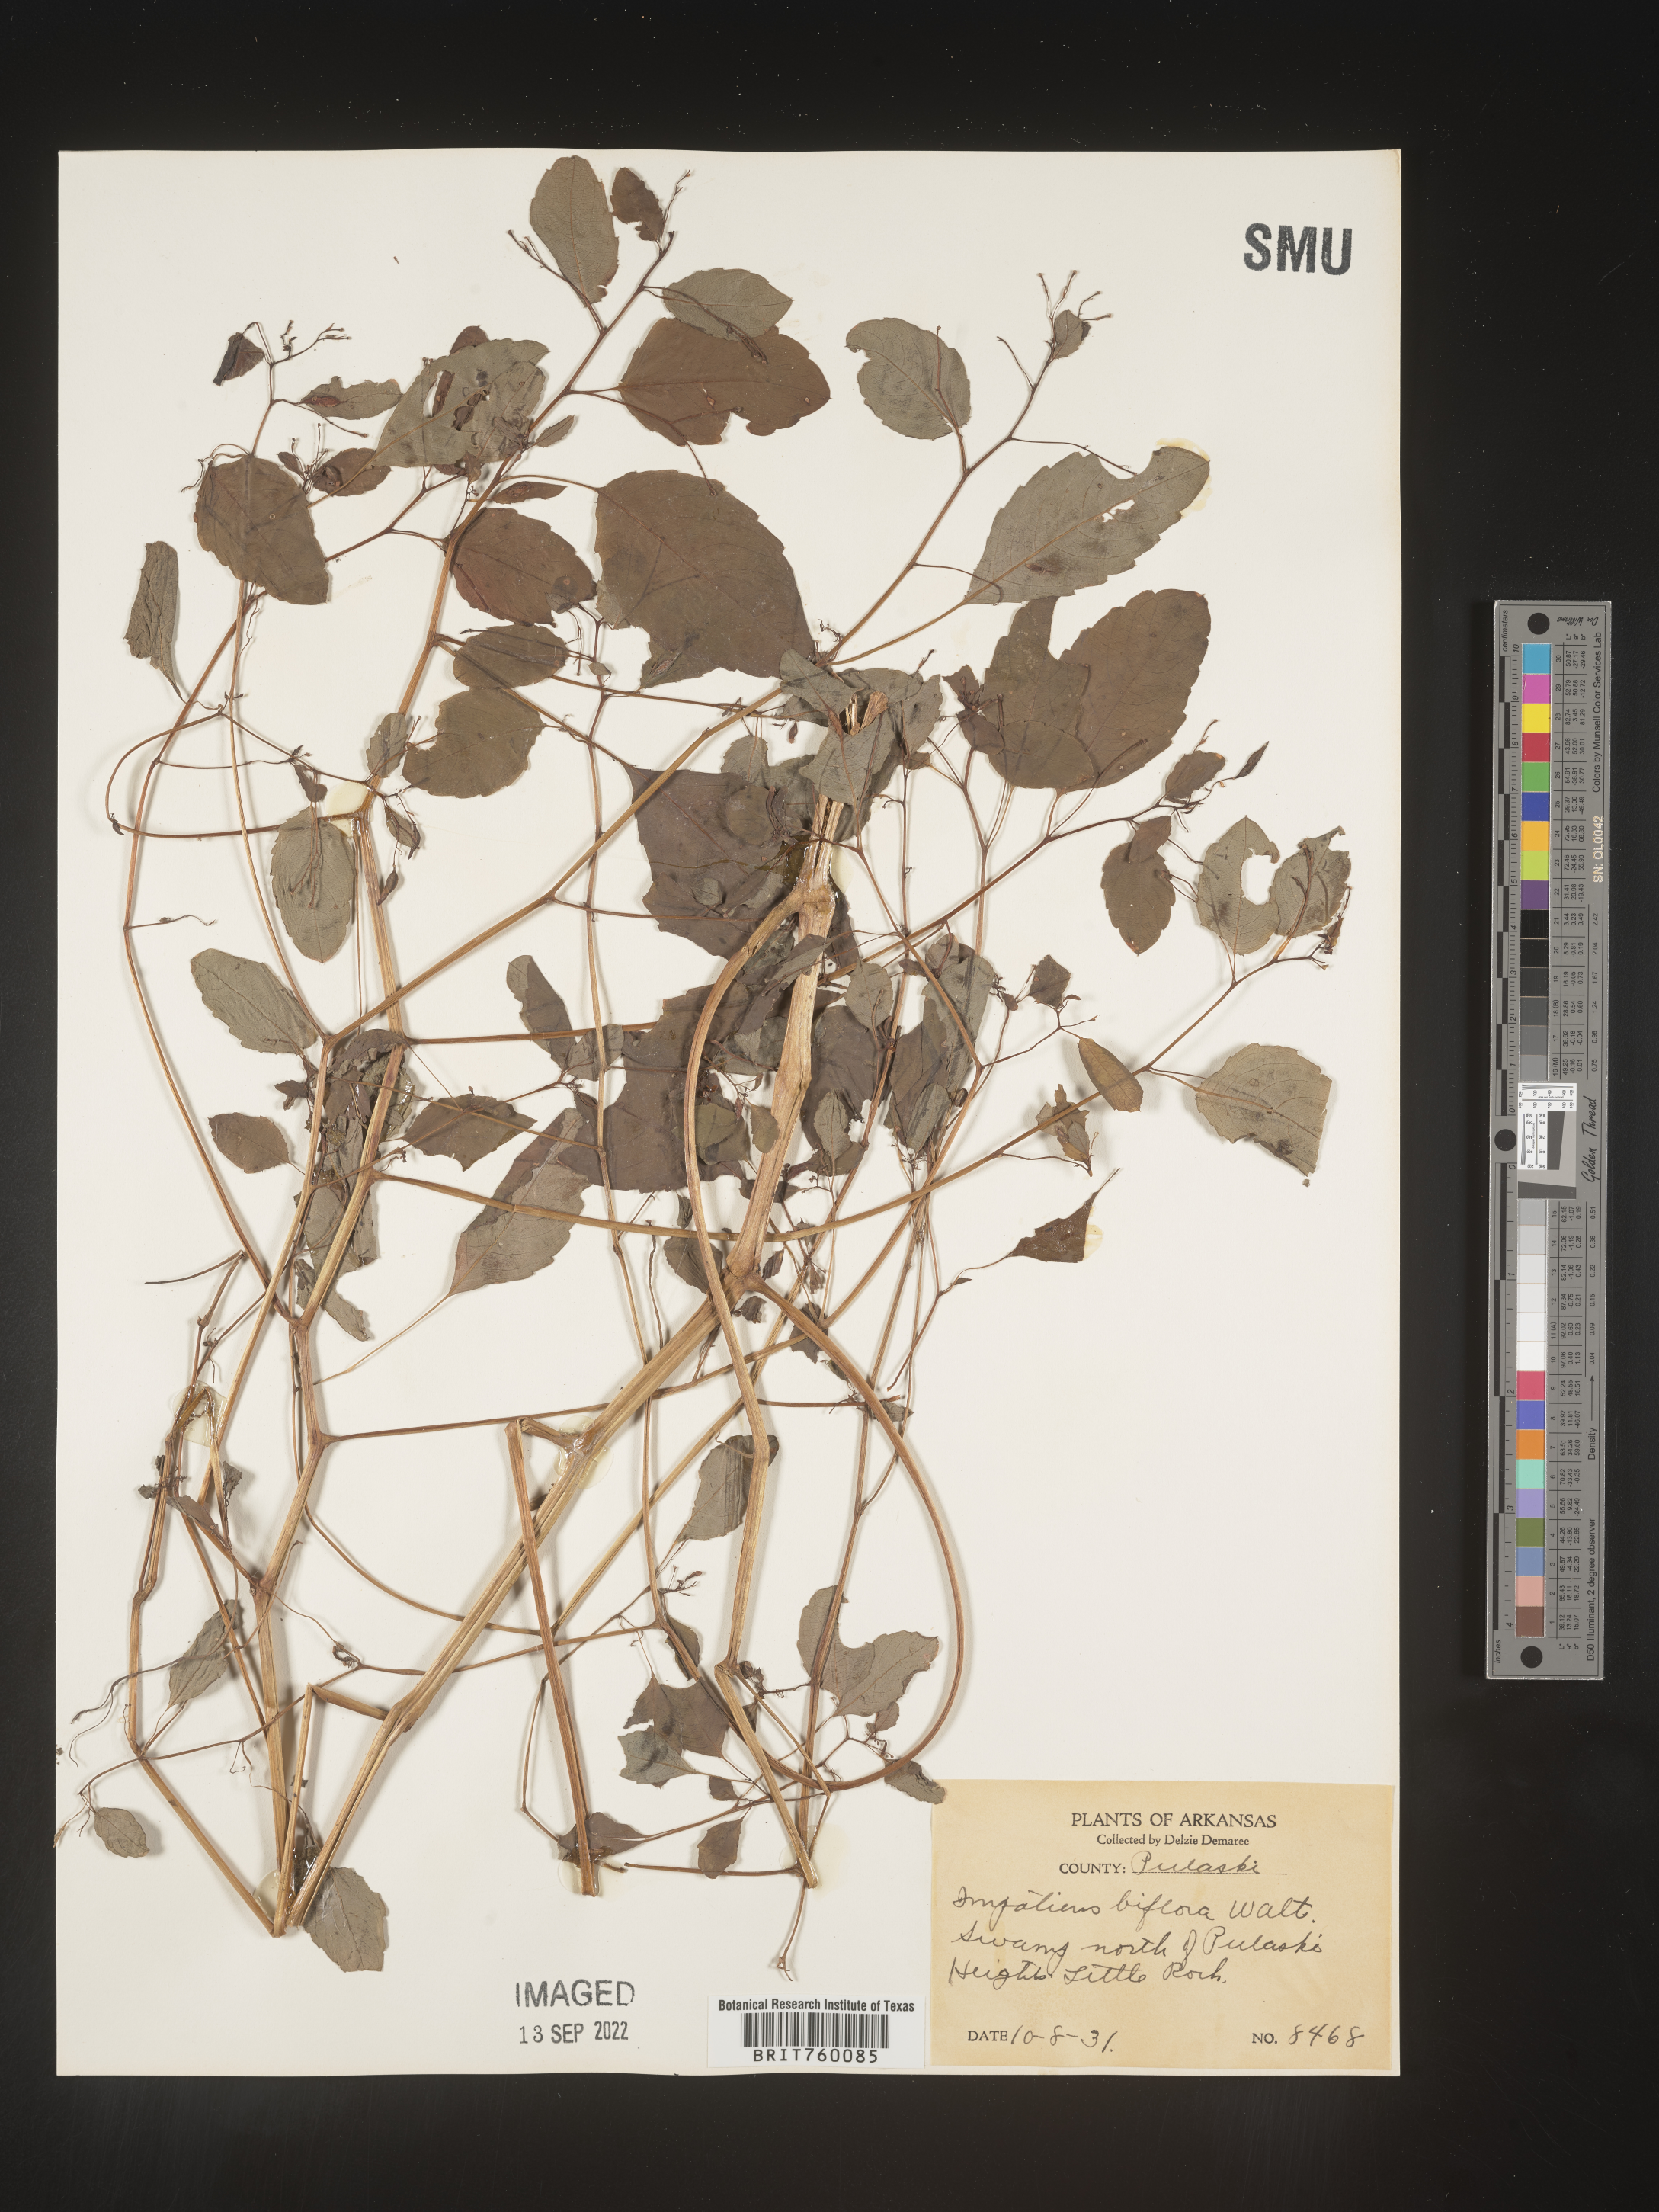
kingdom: Plantae
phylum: Tracheophyta
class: Magnoliopsida
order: Ericales
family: Balsaminaceae
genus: Impatiens
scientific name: Impatiens capensis
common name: Orange balsam
